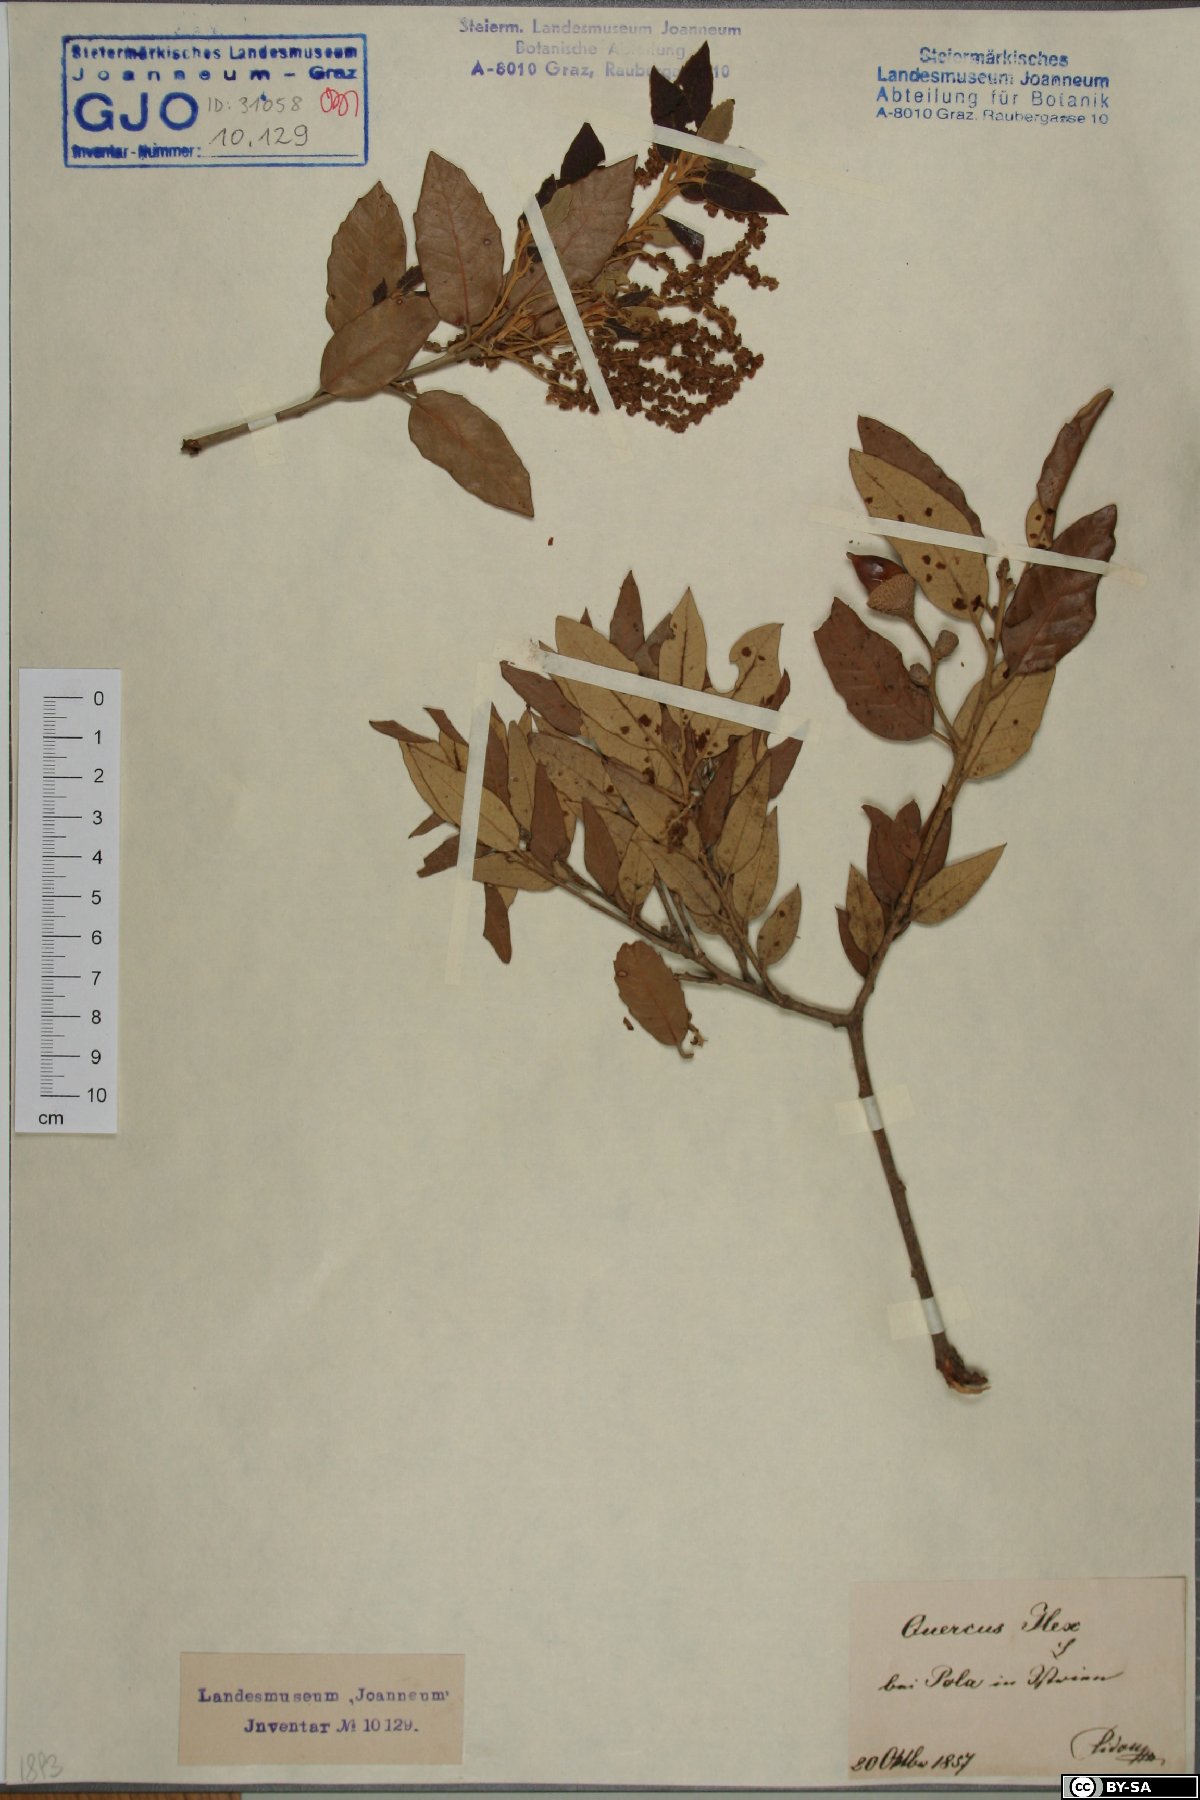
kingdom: Plantae
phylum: Tracheophyta
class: Magnoliopsida
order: Fagales
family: Fagaceae
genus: Quercus
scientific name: Quercus ilex
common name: Evergreen oak
